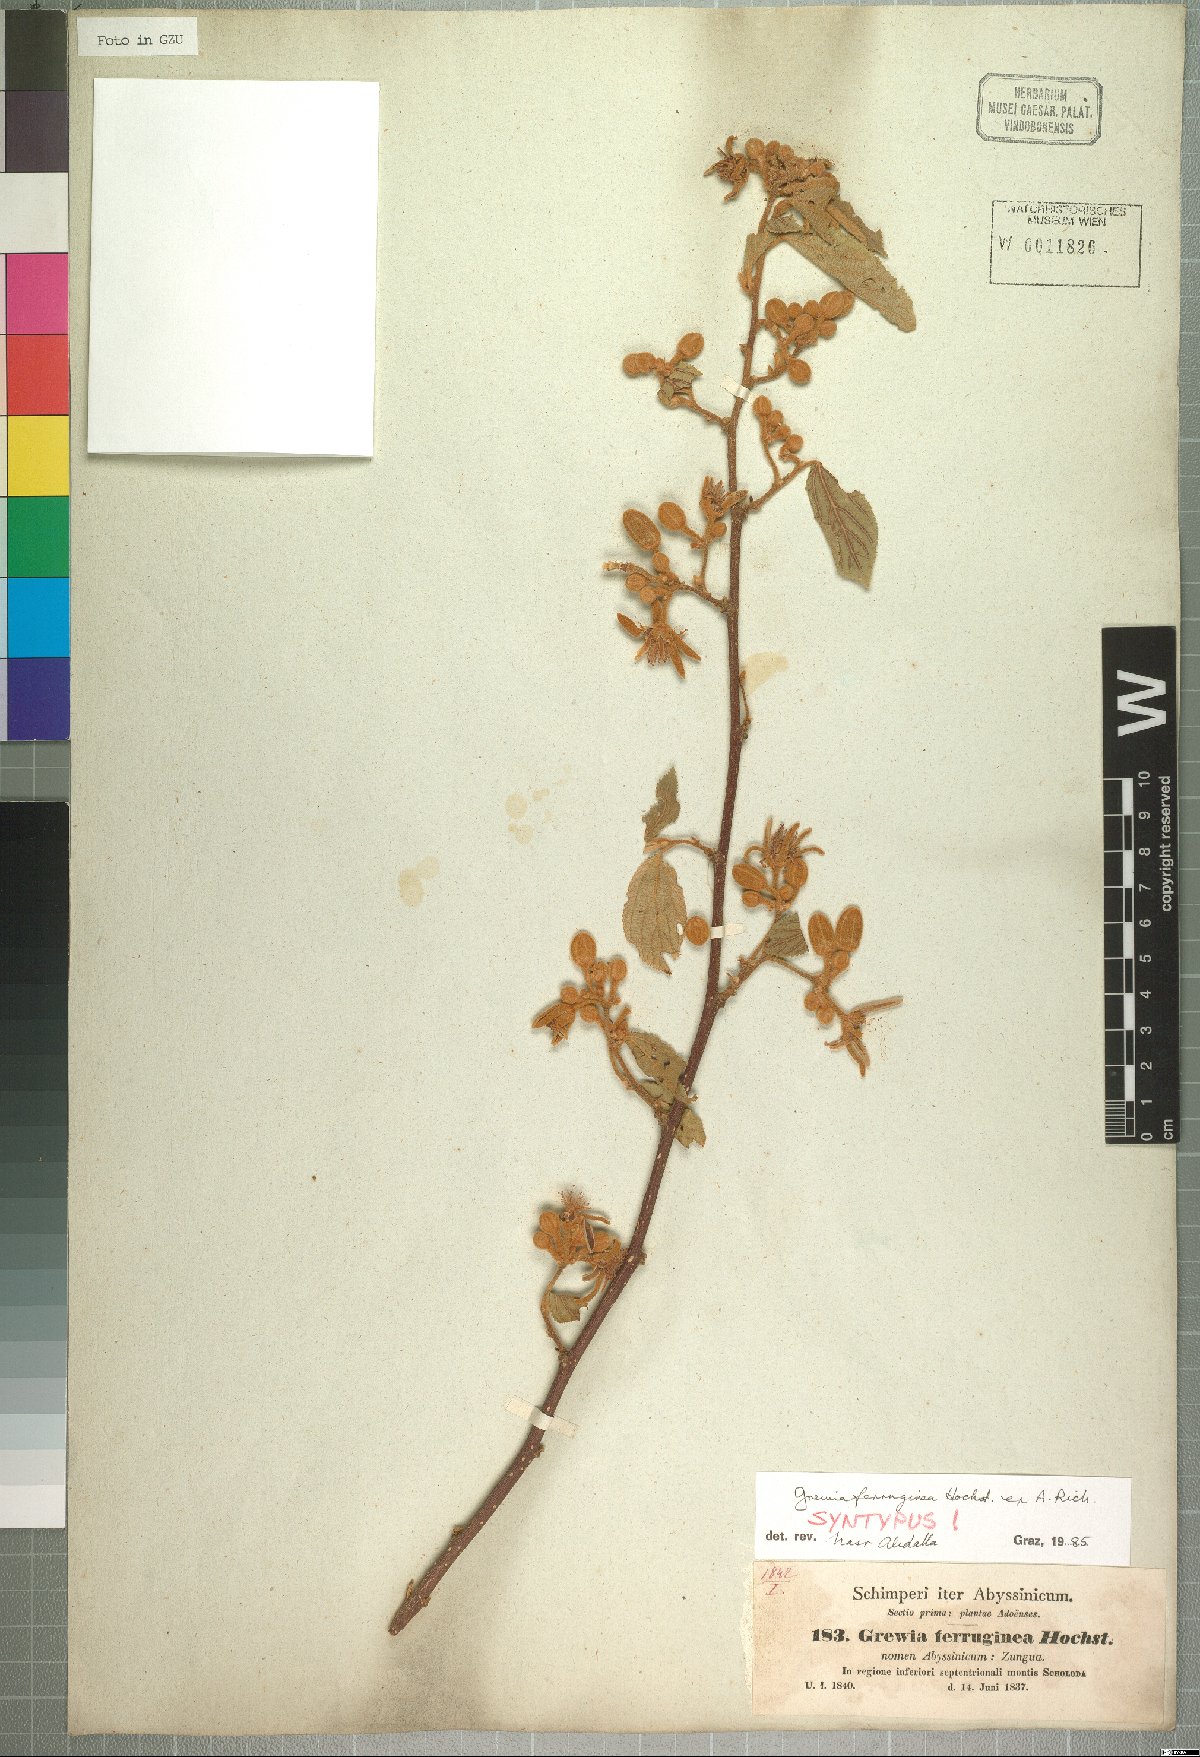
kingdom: Plantae
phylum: Tracheophyta
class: Magnoliopsida
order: Malvales
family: Malvaceae
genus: Grewia
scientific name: Grewia ferruginea
